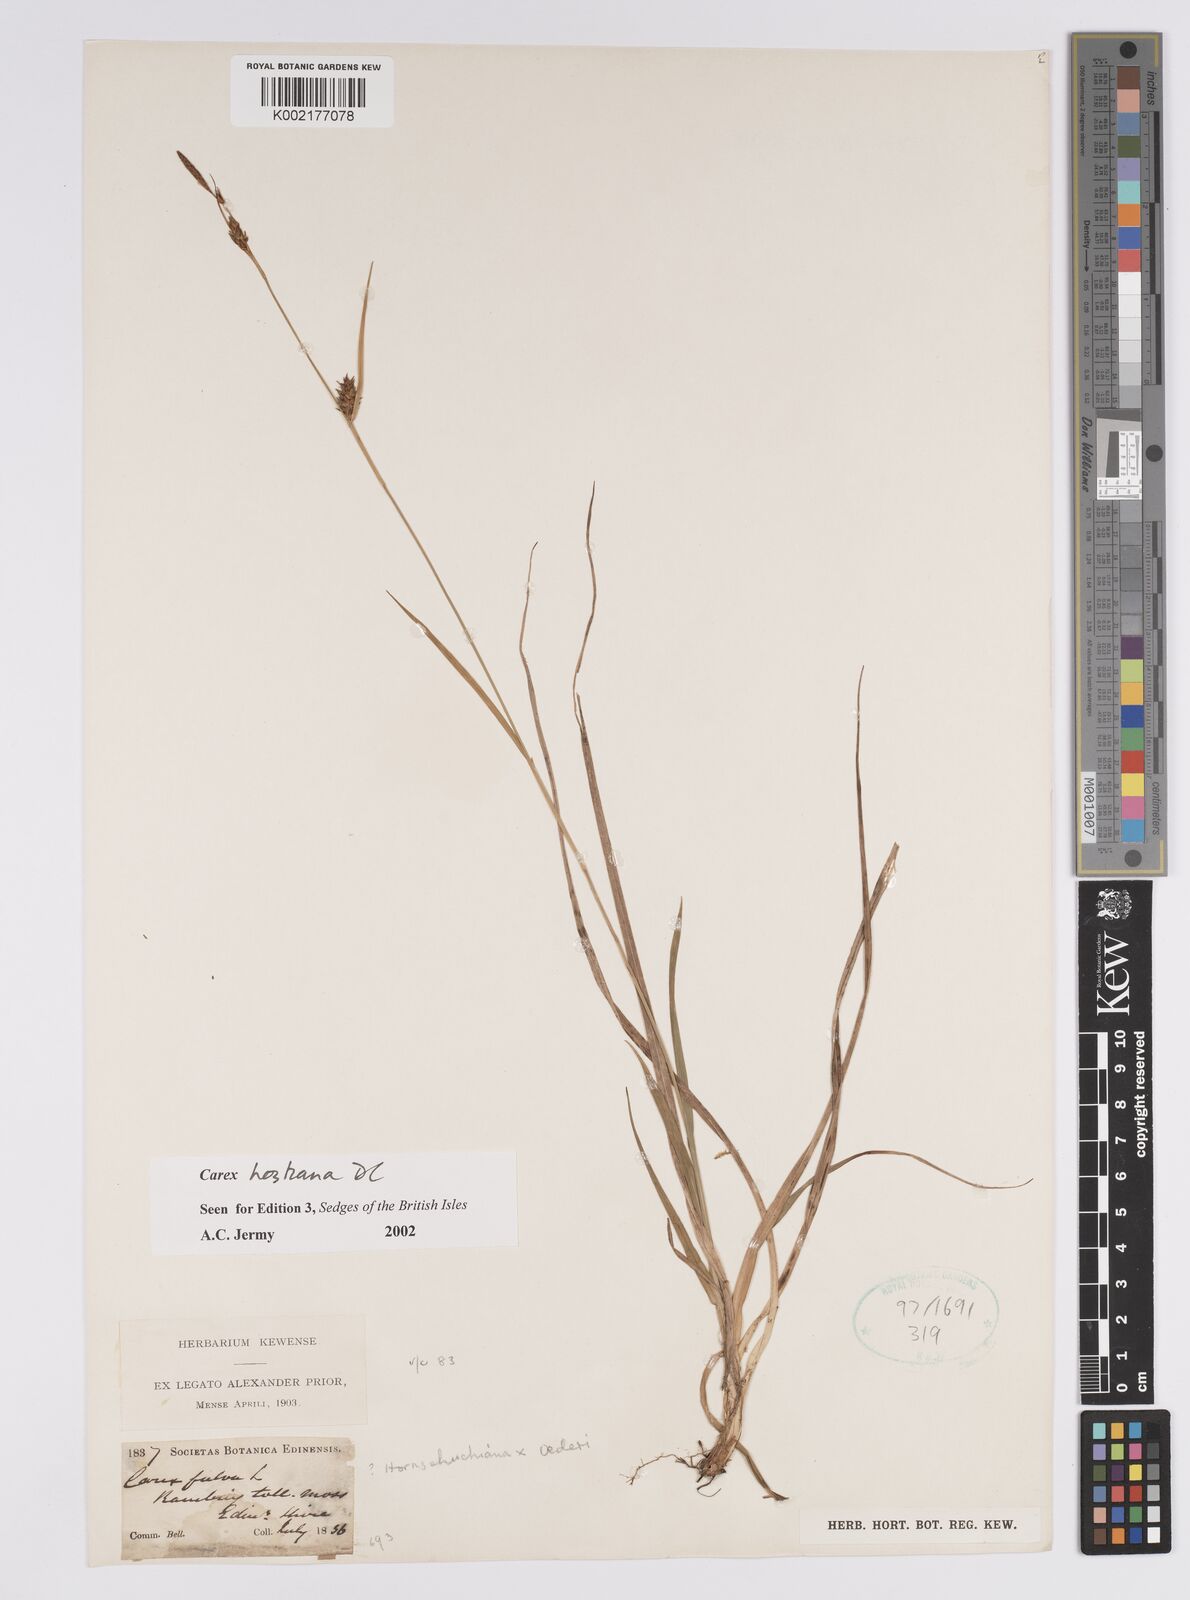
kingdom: Plantae
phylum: Tracheophyta
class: Liliopsida
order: Poales
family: Cyperaceae
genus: Carex
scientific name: Carex hostiana
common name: Tawny sedge
